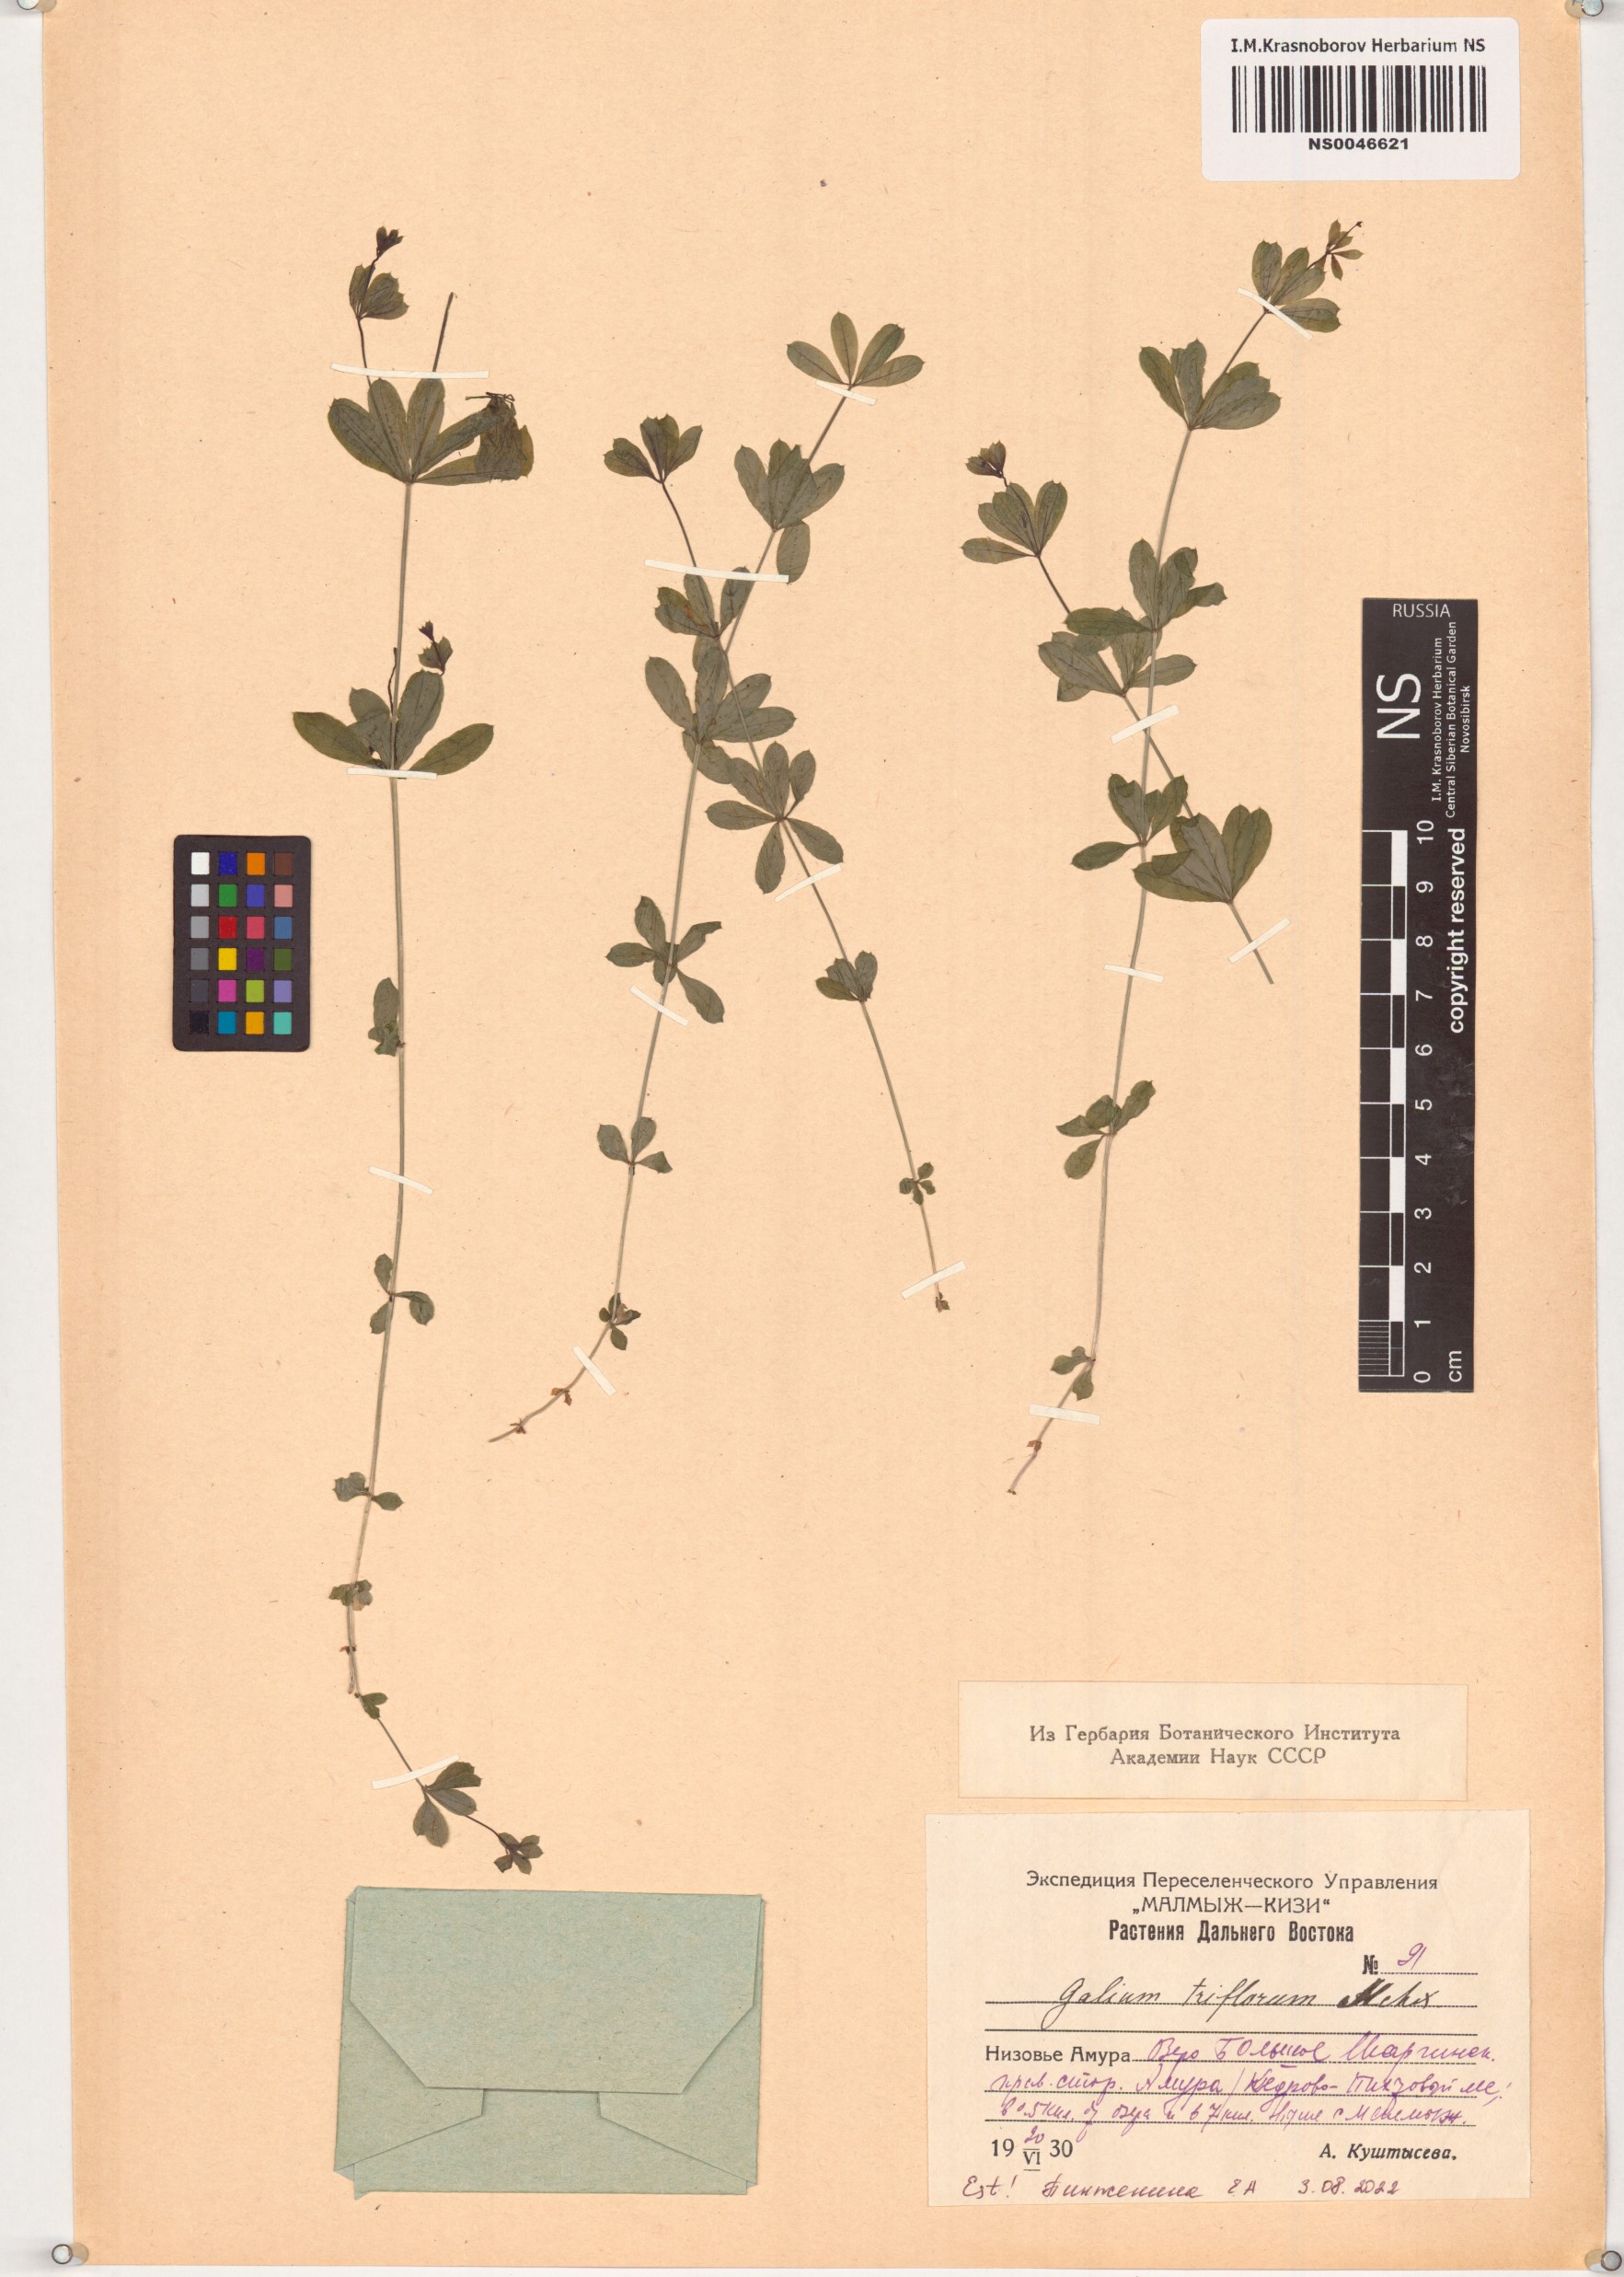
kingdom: Plantae
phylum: Tracheophyta
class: Magnoliopsida
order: Gentianales
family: Rubiaceae
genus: Galium
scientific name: Galium triflorum
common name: Fragrant bedstraw
